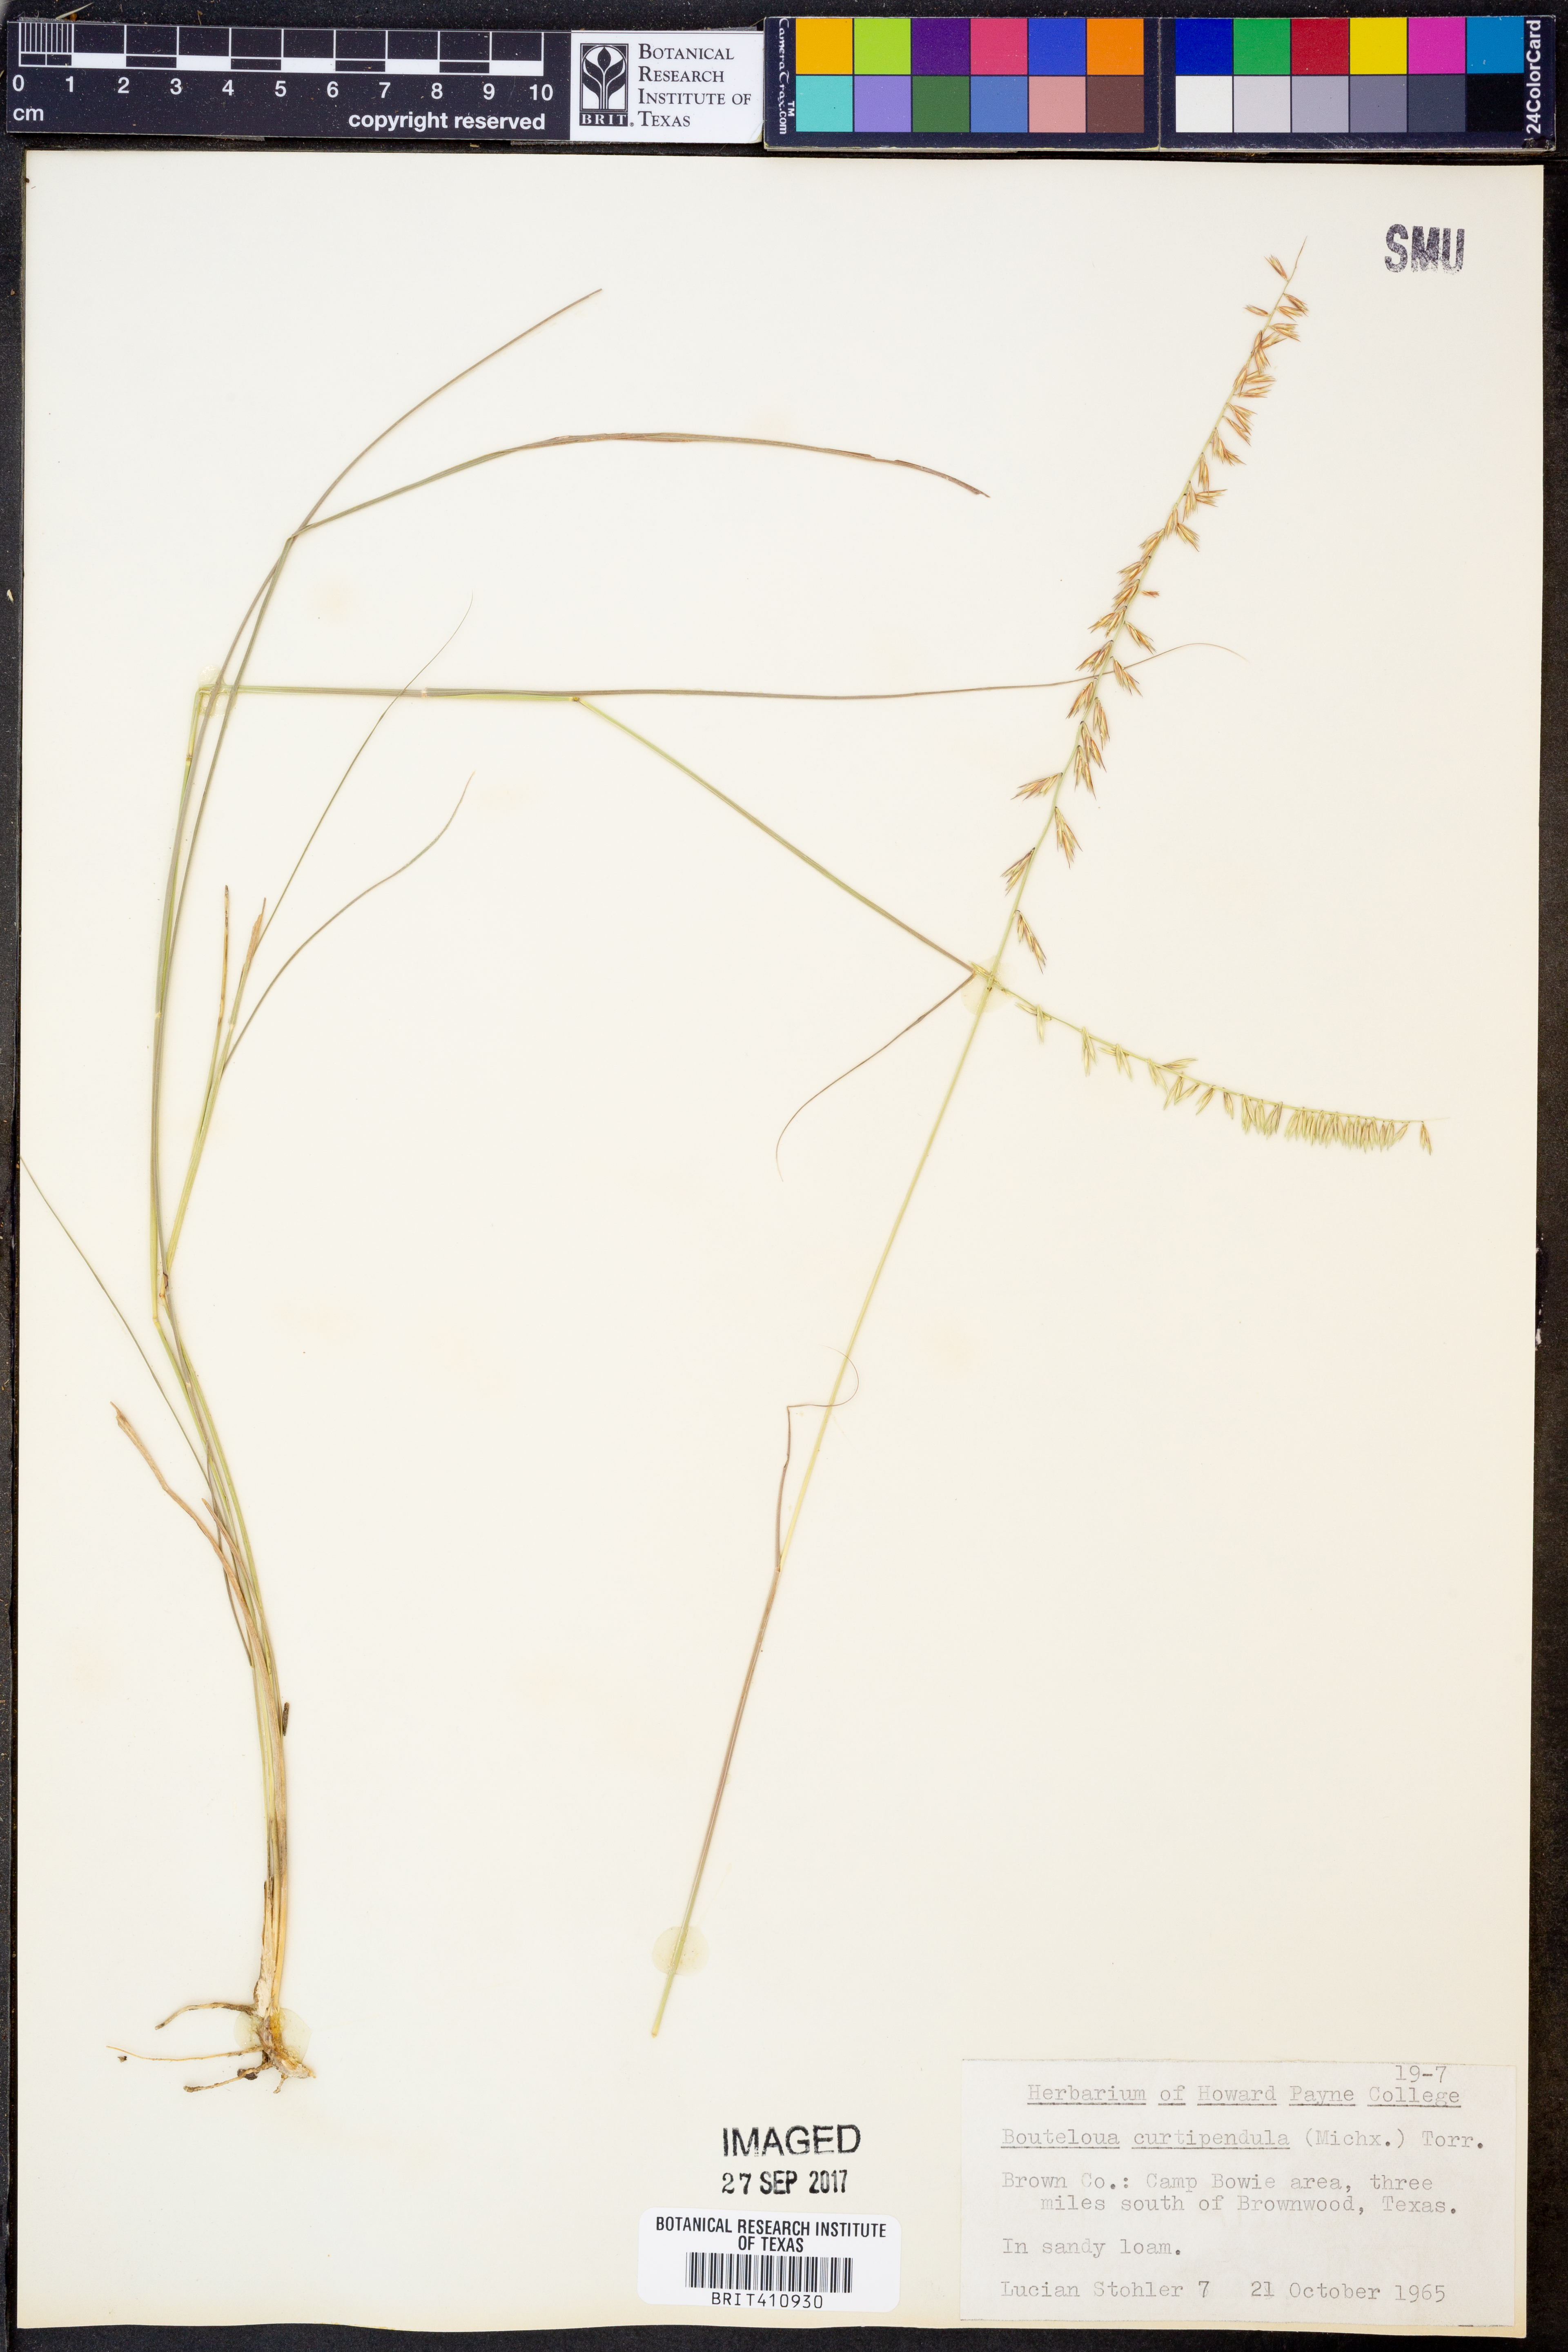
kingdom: Plantae
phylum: Tracheophyta
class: Liliopsida
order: Poales
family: Poaceae
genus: Bouteloua
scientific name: Bouteloua curtipendula
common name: Side-oats grama
